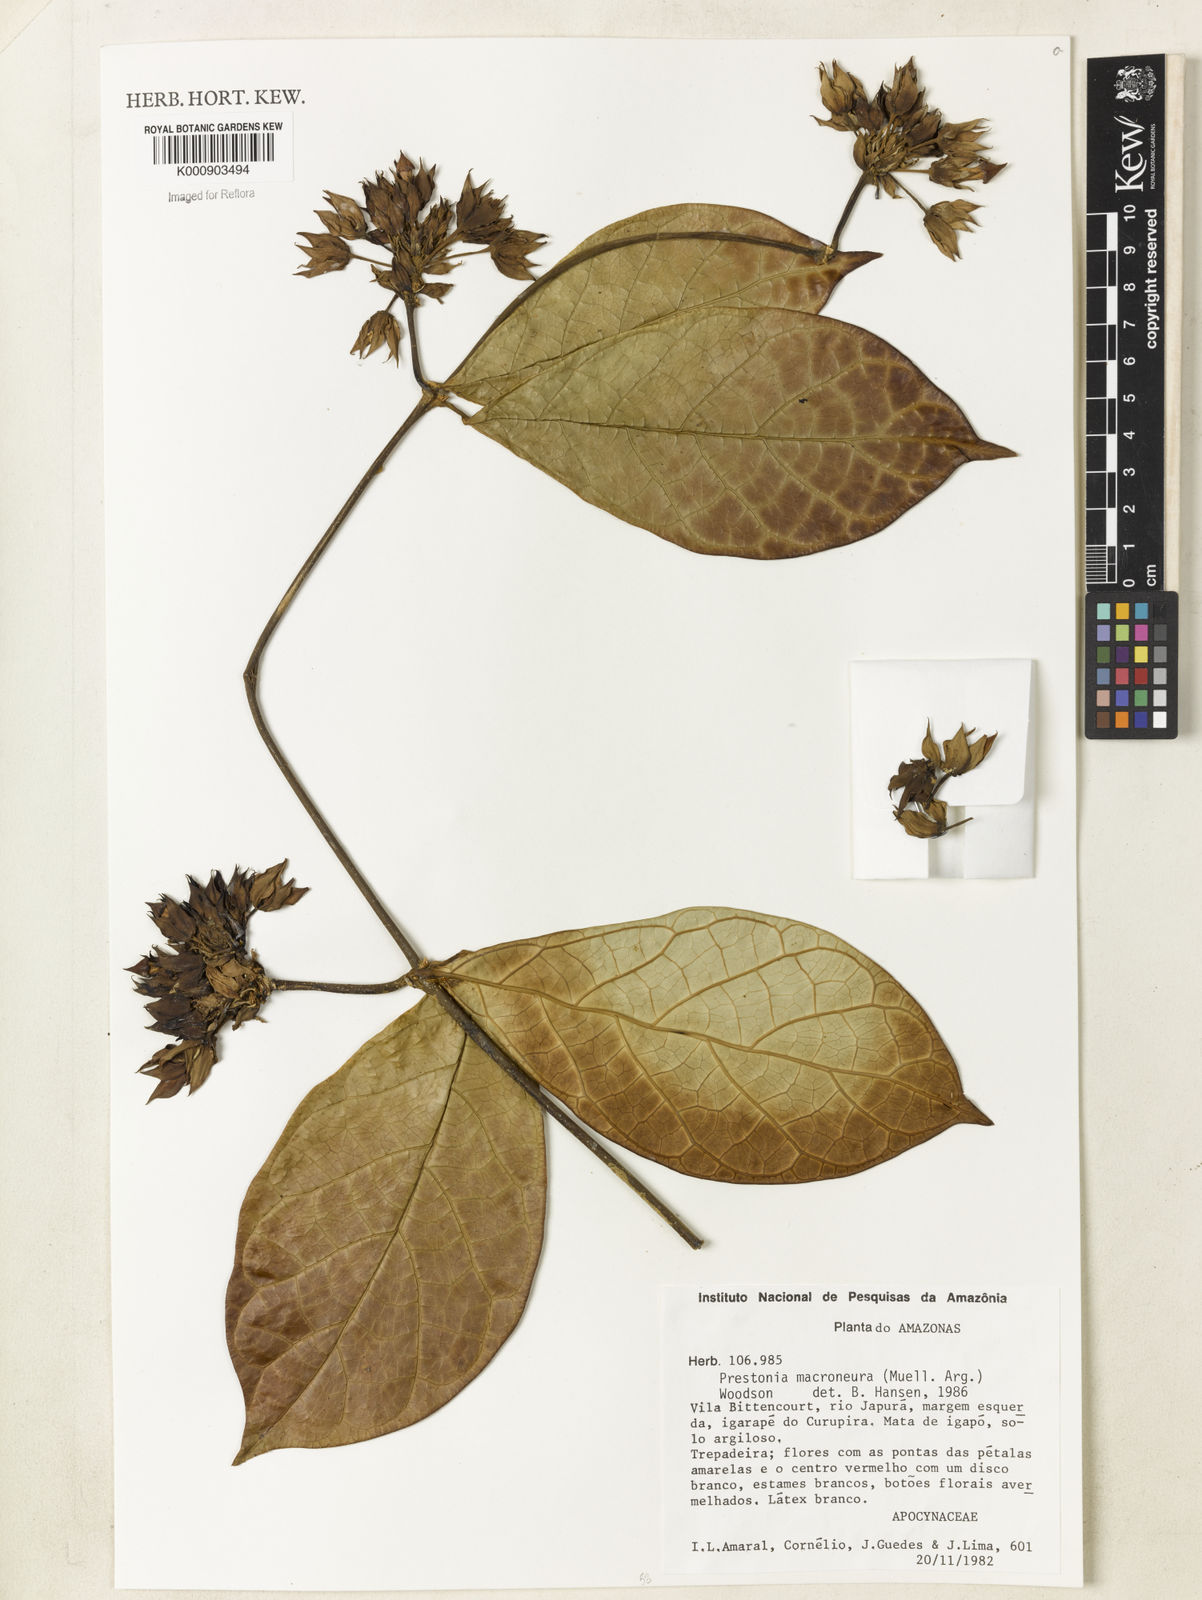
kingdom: Plantae
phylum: Tracheophyta
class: Magnoliopsida
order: Gentianales
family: Apocynaceae
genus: Prestonia
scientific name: Prestonia macroneura
